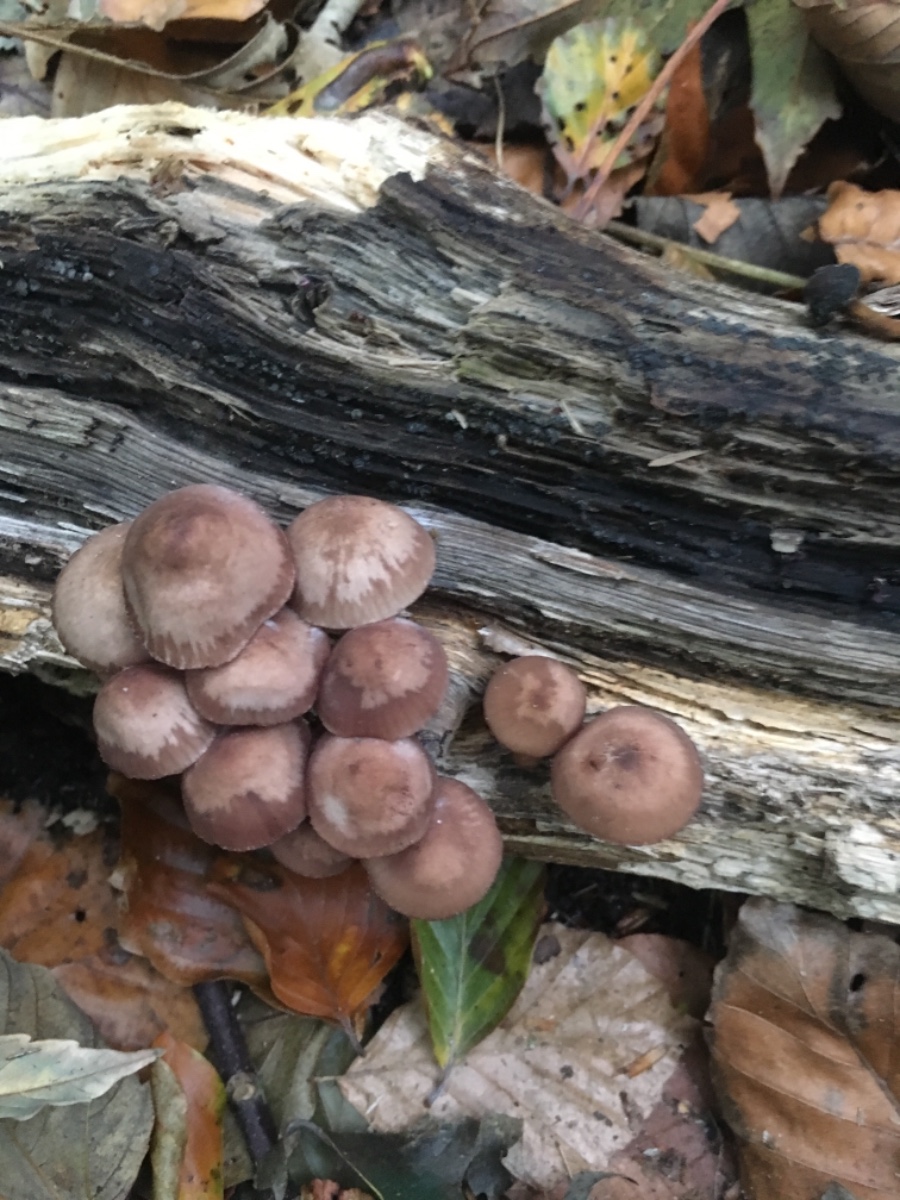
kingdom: Fungi
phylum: Basidiomycota
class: Agaricomycetes
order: Agaricales
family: Mycenaceae
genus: Mycena
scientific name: Mycena haematopus
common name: blødende huesvamp
